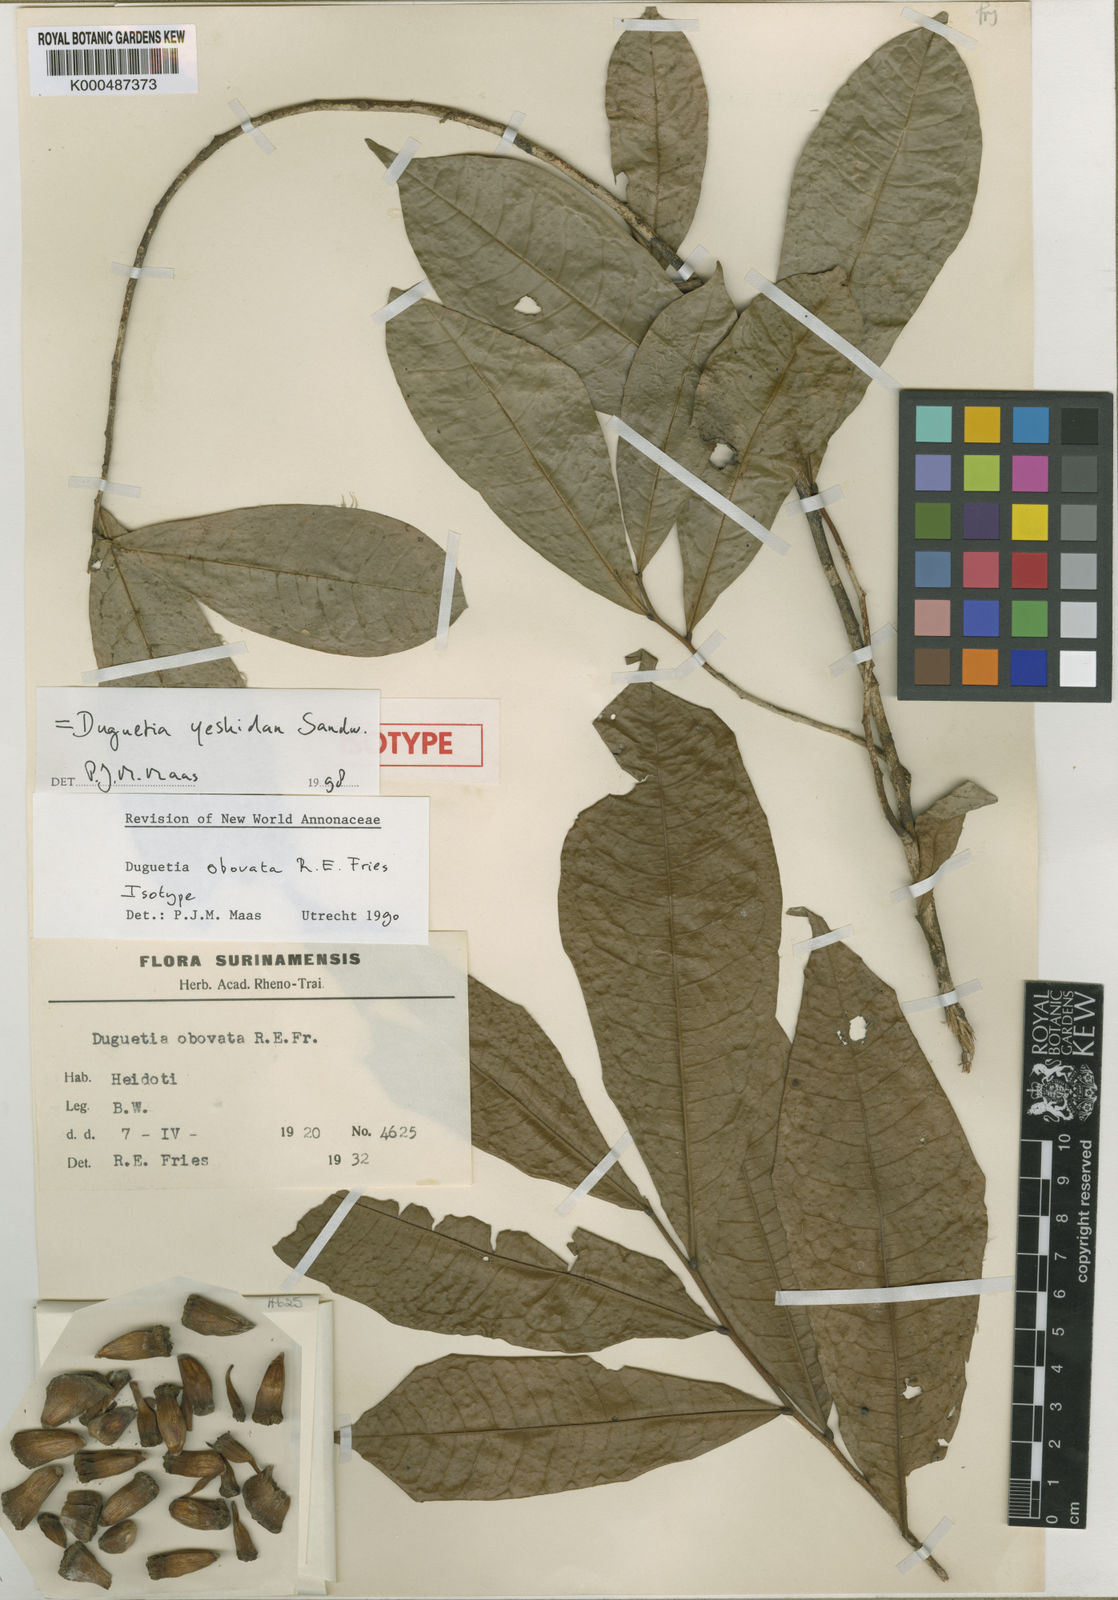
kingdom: Plantae
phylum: Tracheophyta
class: Magnoliopsida
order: Magnoliales
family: Annonaceae
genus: Duguetia
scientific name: Duguetia yeshidan
